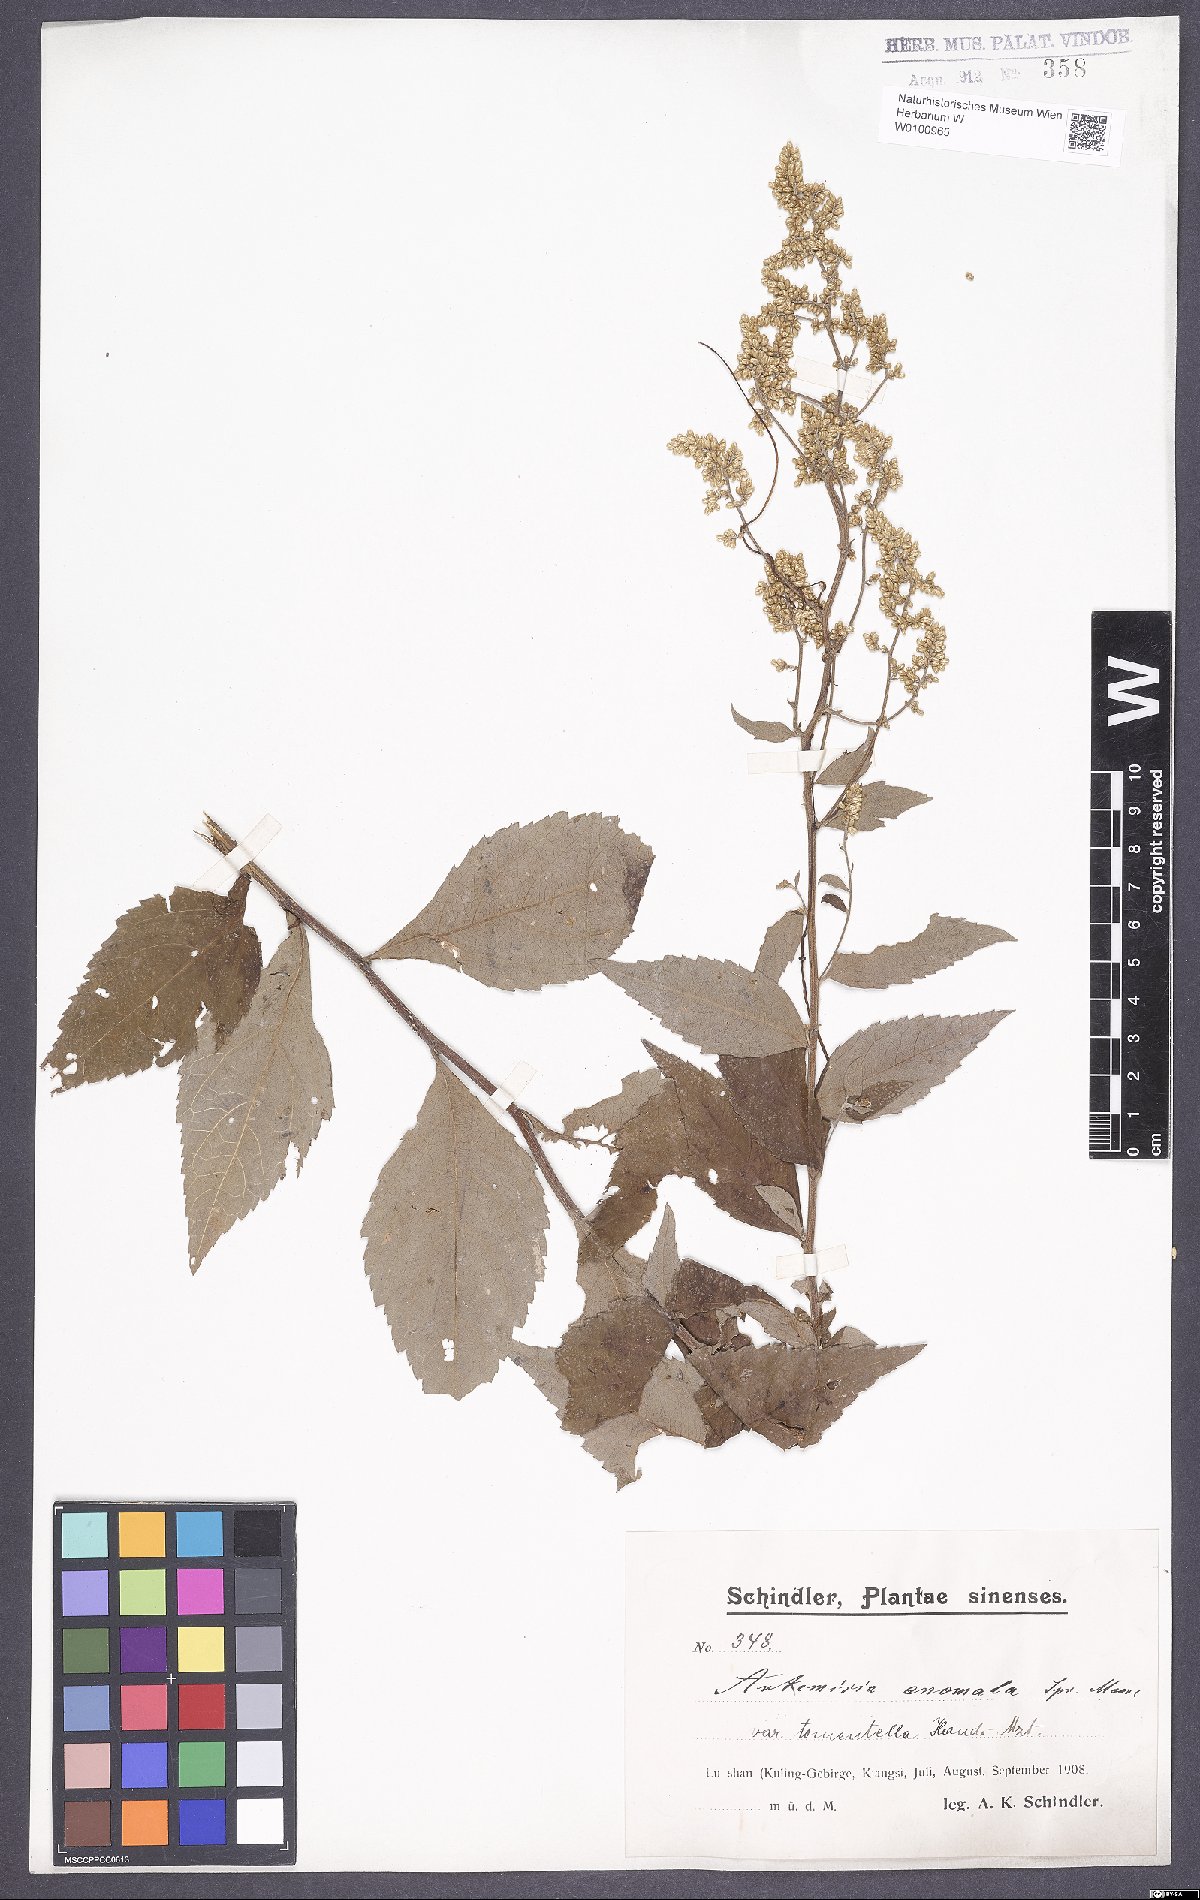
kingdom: Plantae
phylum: Tracheophyta
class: Magnoliopsida
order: Asterales
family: Asteraceae
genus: Artemisia
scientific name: Artemisia anomala
